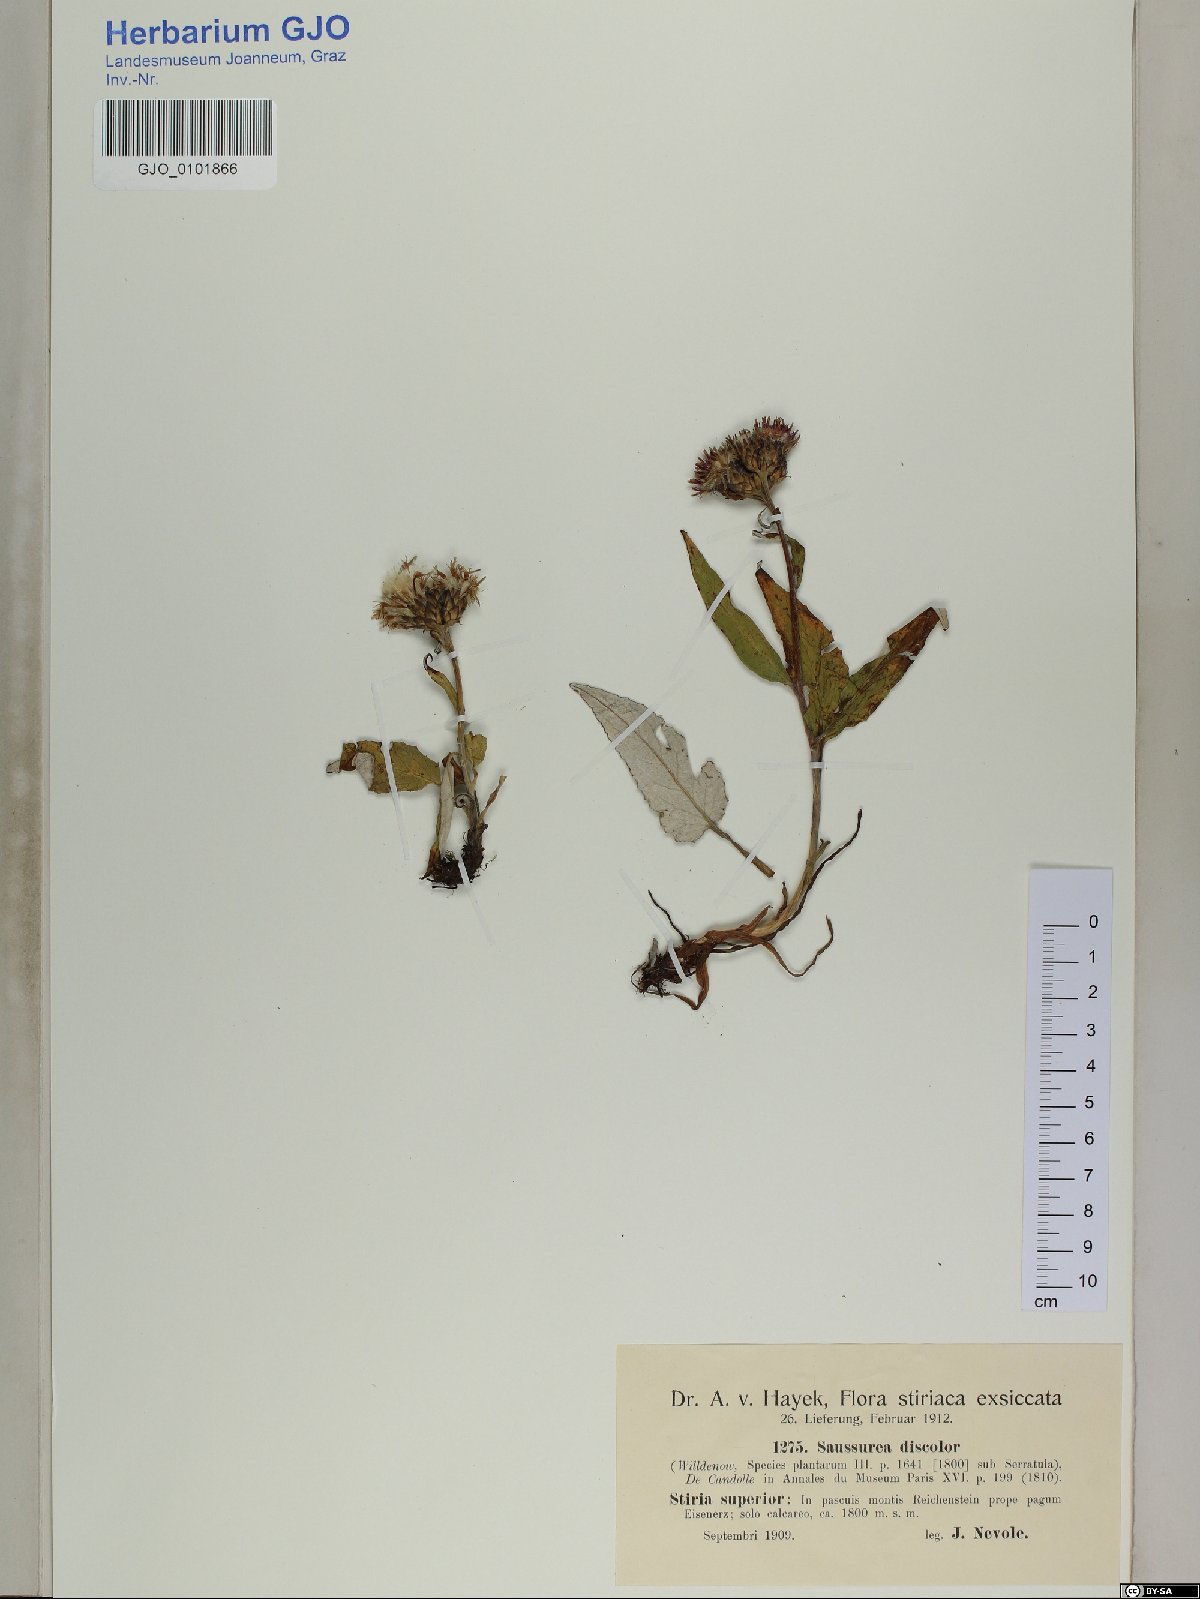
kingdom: Plantae
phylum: Tracheophyta
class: Magnoliopsida
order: Asterales
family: Asteraceae
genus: Saussurea
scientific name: Saussurea discolor
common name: Heart-leaved saussurea
